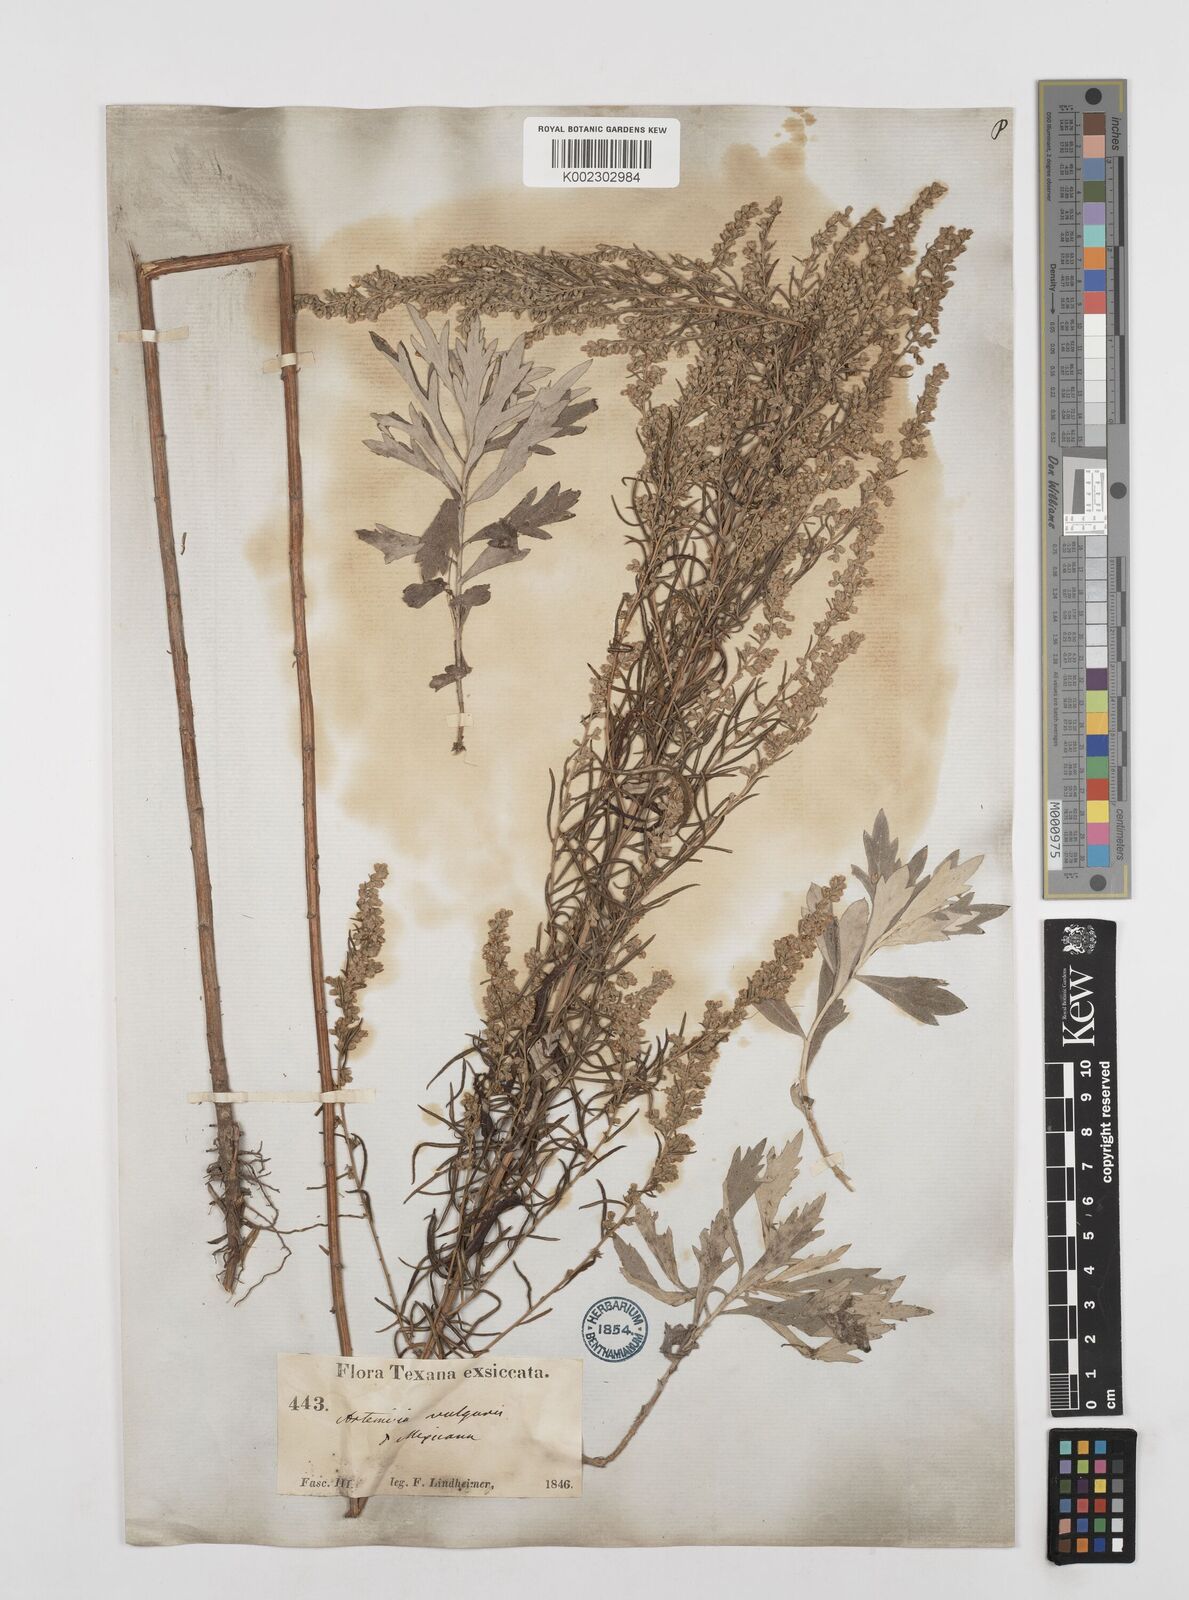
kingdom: Plantae
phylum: Tracheophyta
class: Magnoliopsida
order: Asterales
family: Asteraceae
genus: Artemisia
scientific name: Artemisia ludoviciana
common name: Western mugwort
